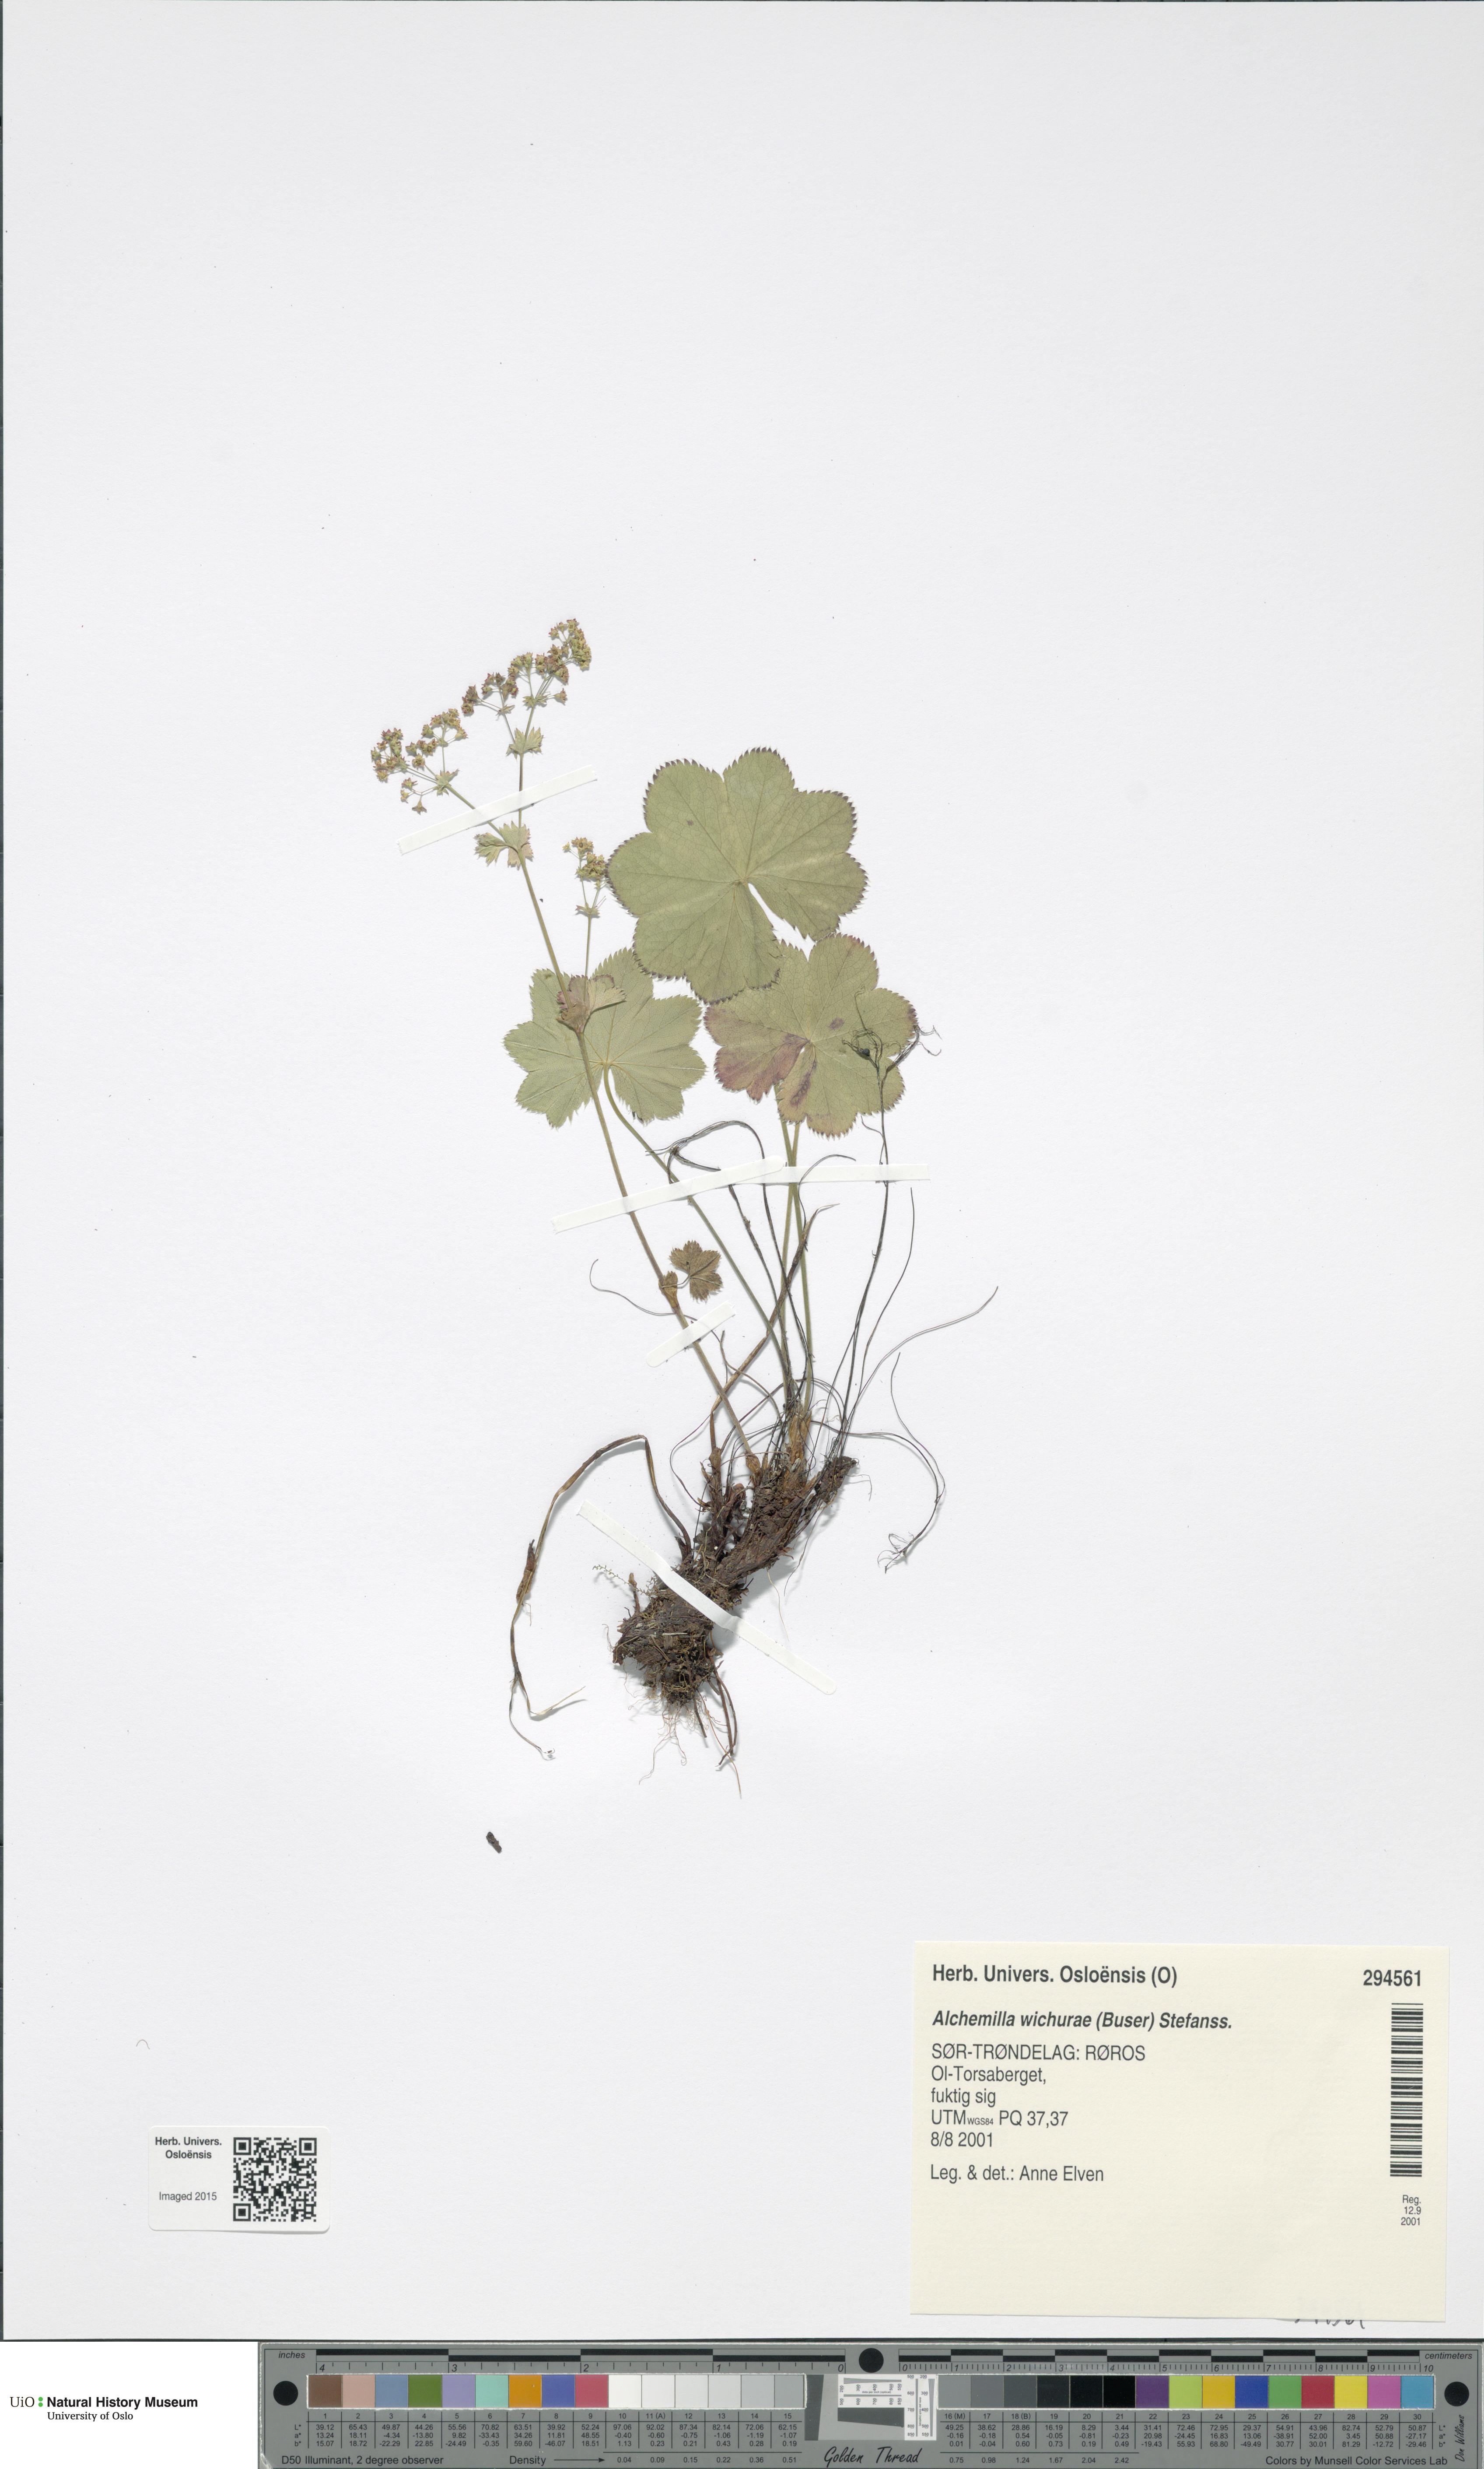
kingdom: Plantae
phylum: Tracheophyta
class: Magnoliopsida
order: Rosales
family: Rosaceae
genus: Alchemilla
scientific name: Alchemilla wichurae
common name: Rock lady's mantle
